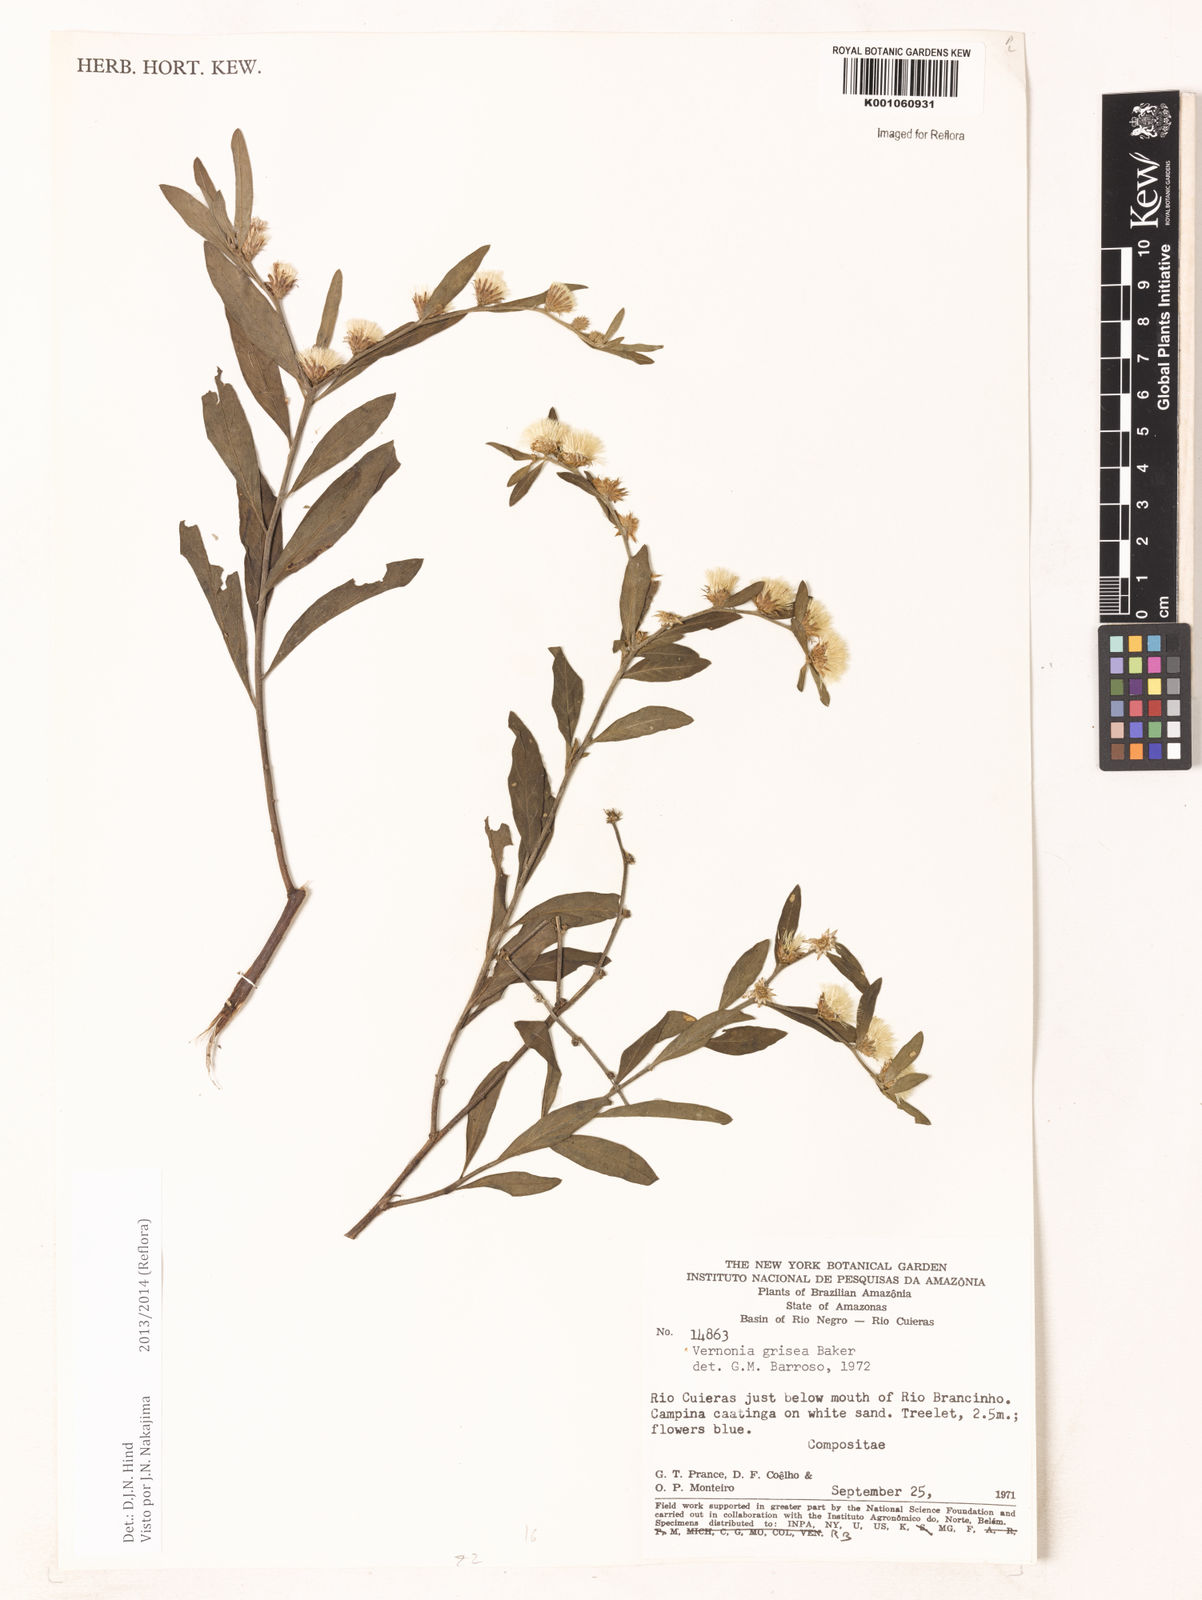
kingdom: Plantae
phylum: Tracheophyta
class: Magnoliopsida
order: Asterales
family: Asteraceae
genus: Lepidaploa
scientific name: Lepidaploa grisea
